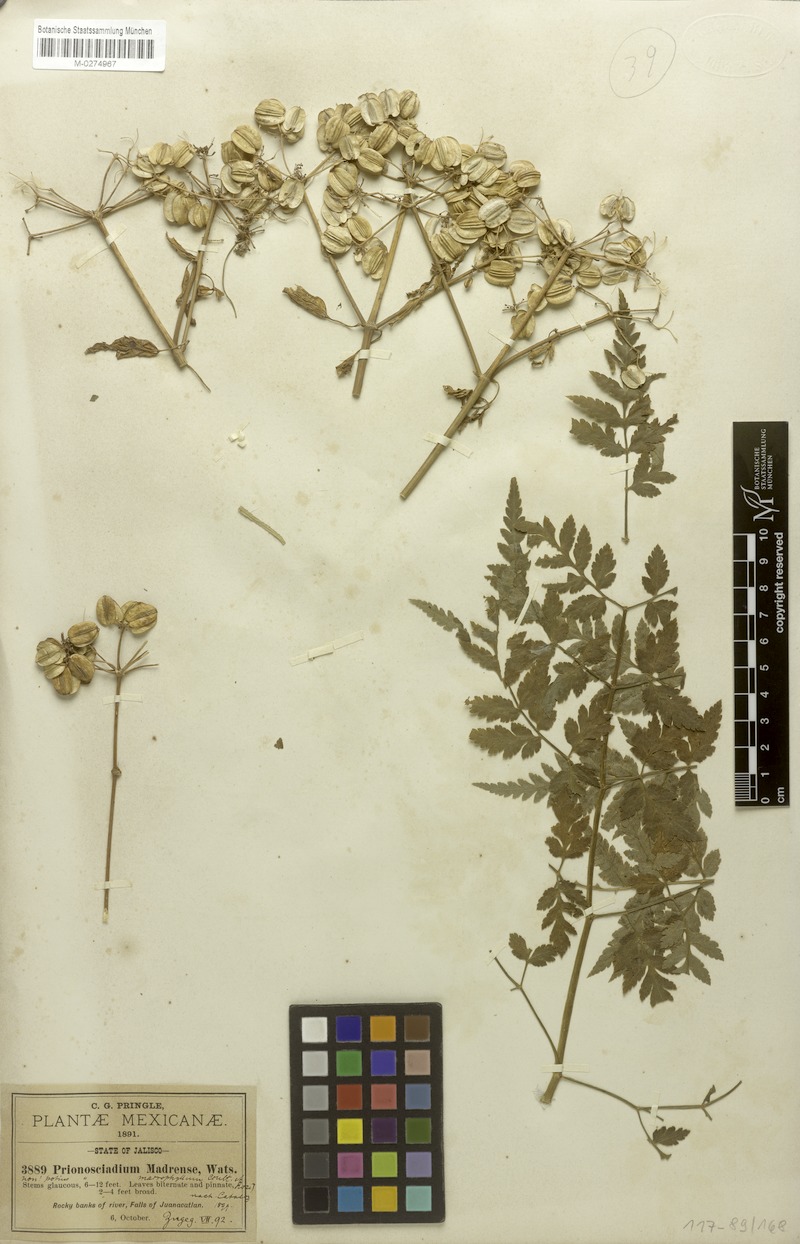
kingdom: Plantae
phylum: Tracheophyta
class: Magnoliopsida
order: Apiales
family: Apiaceae
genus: Prionosciadium
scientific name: Prionosciadium macrophyllum
